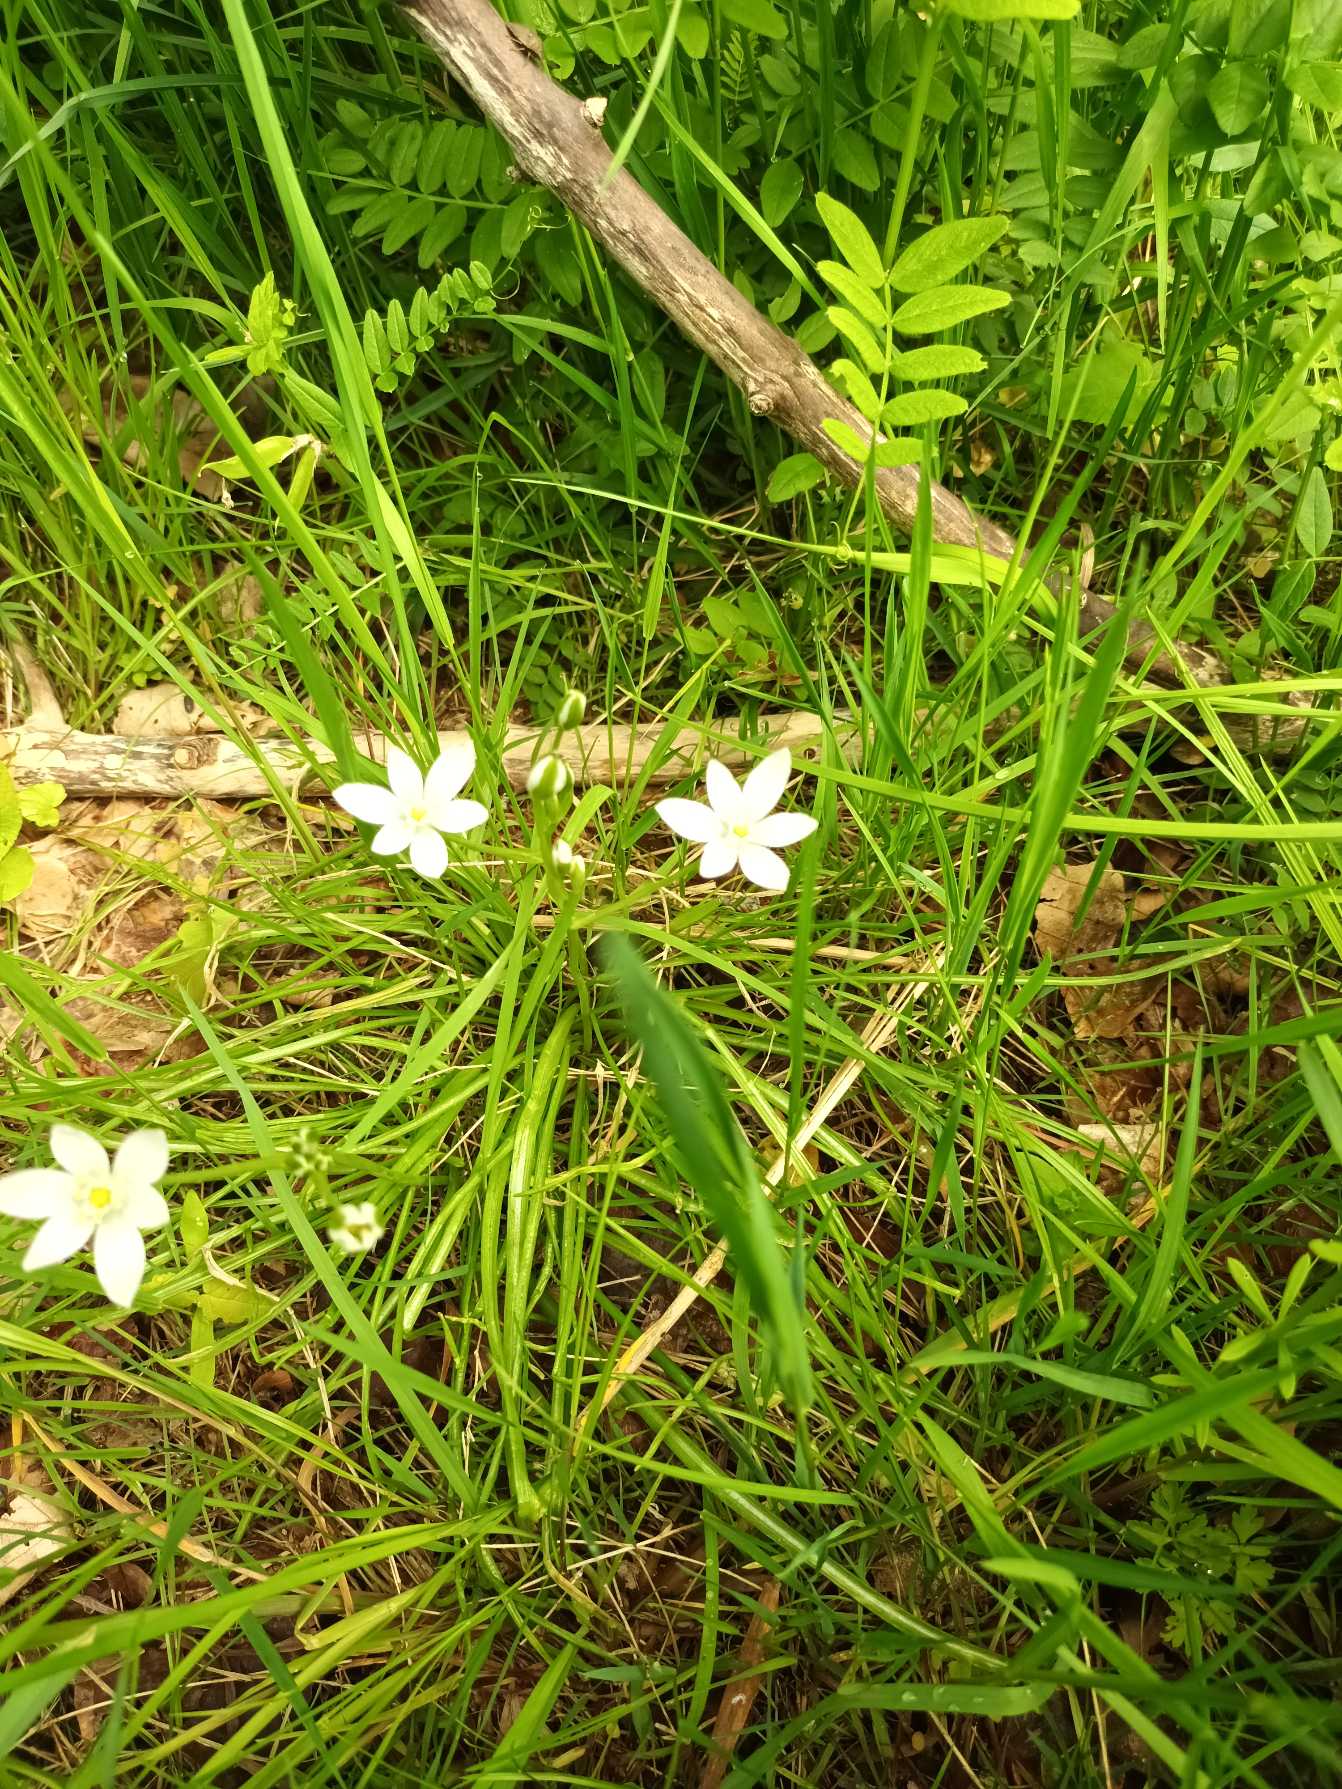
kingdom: Plantae
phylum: Tracheophyta
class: Liliopsida
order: Asparagales
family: Asparagaceae
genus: Ornithogalum
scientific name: Ornithogalum umbellatum
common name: Kost-fuglemælk
